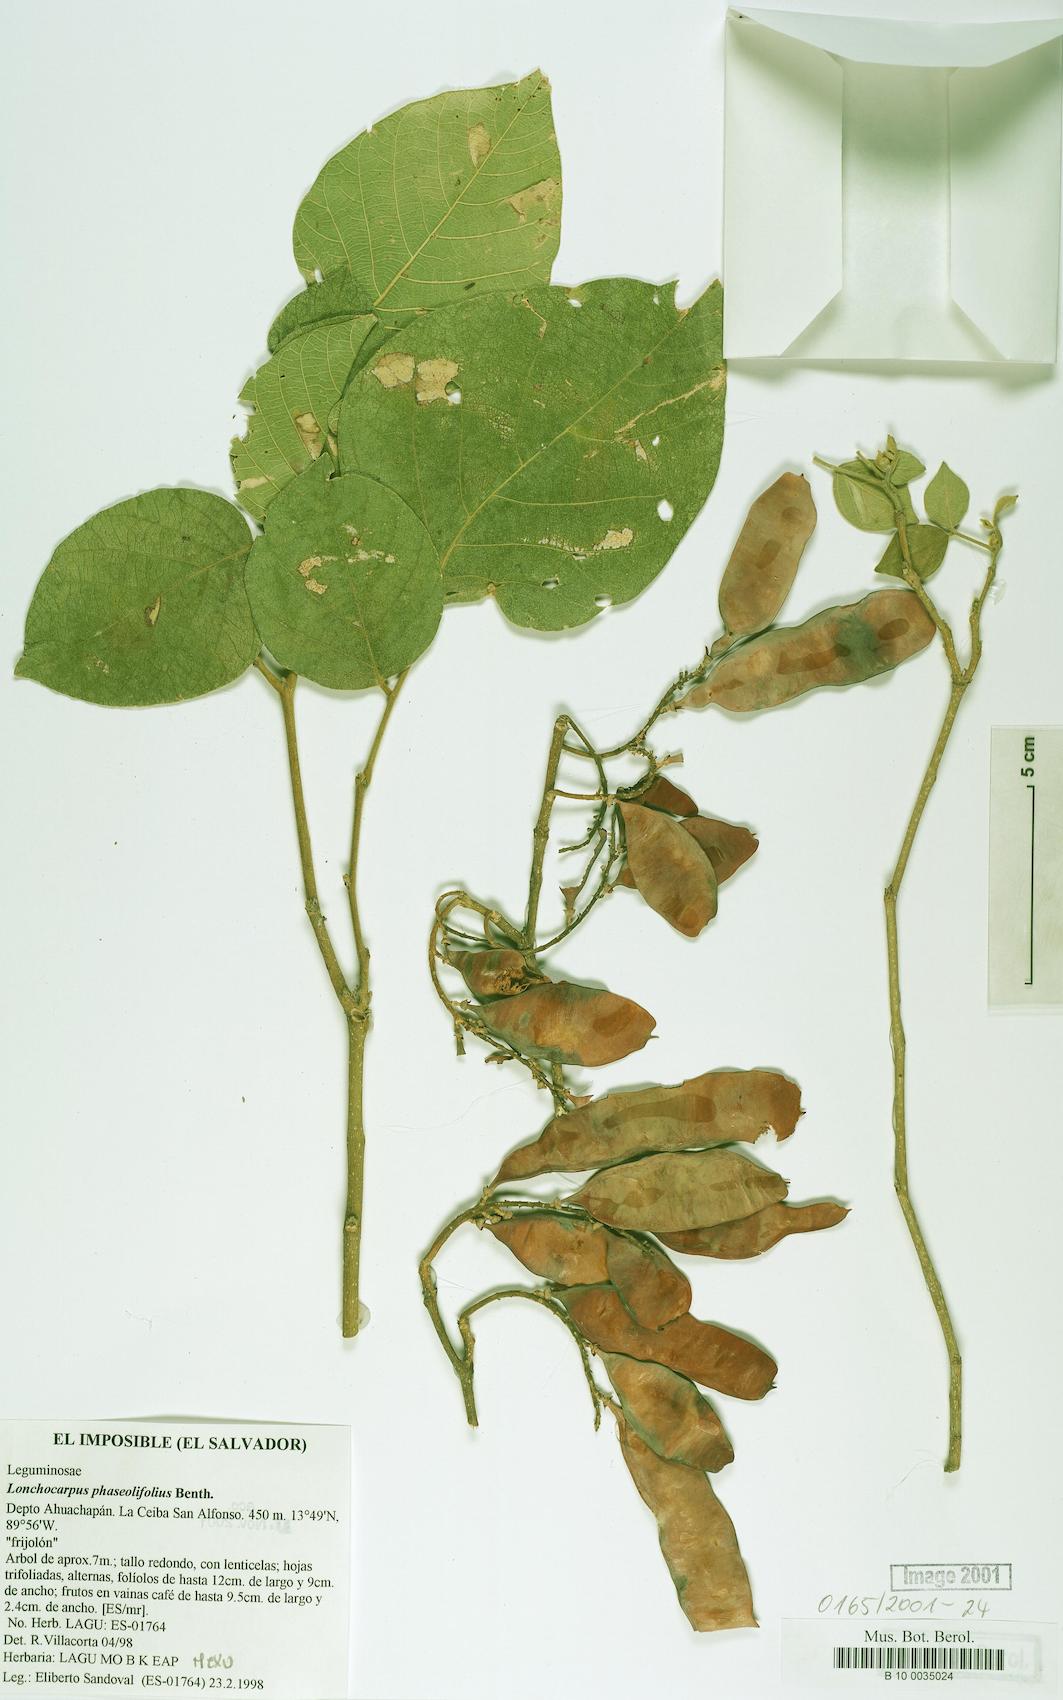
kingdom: Plantae
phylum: Tracheophyta
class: Magnoliopsida
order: Fabales
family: Fabaceae
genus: Lonchocarpus
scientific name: Lonchocarpus phaseolifolius
